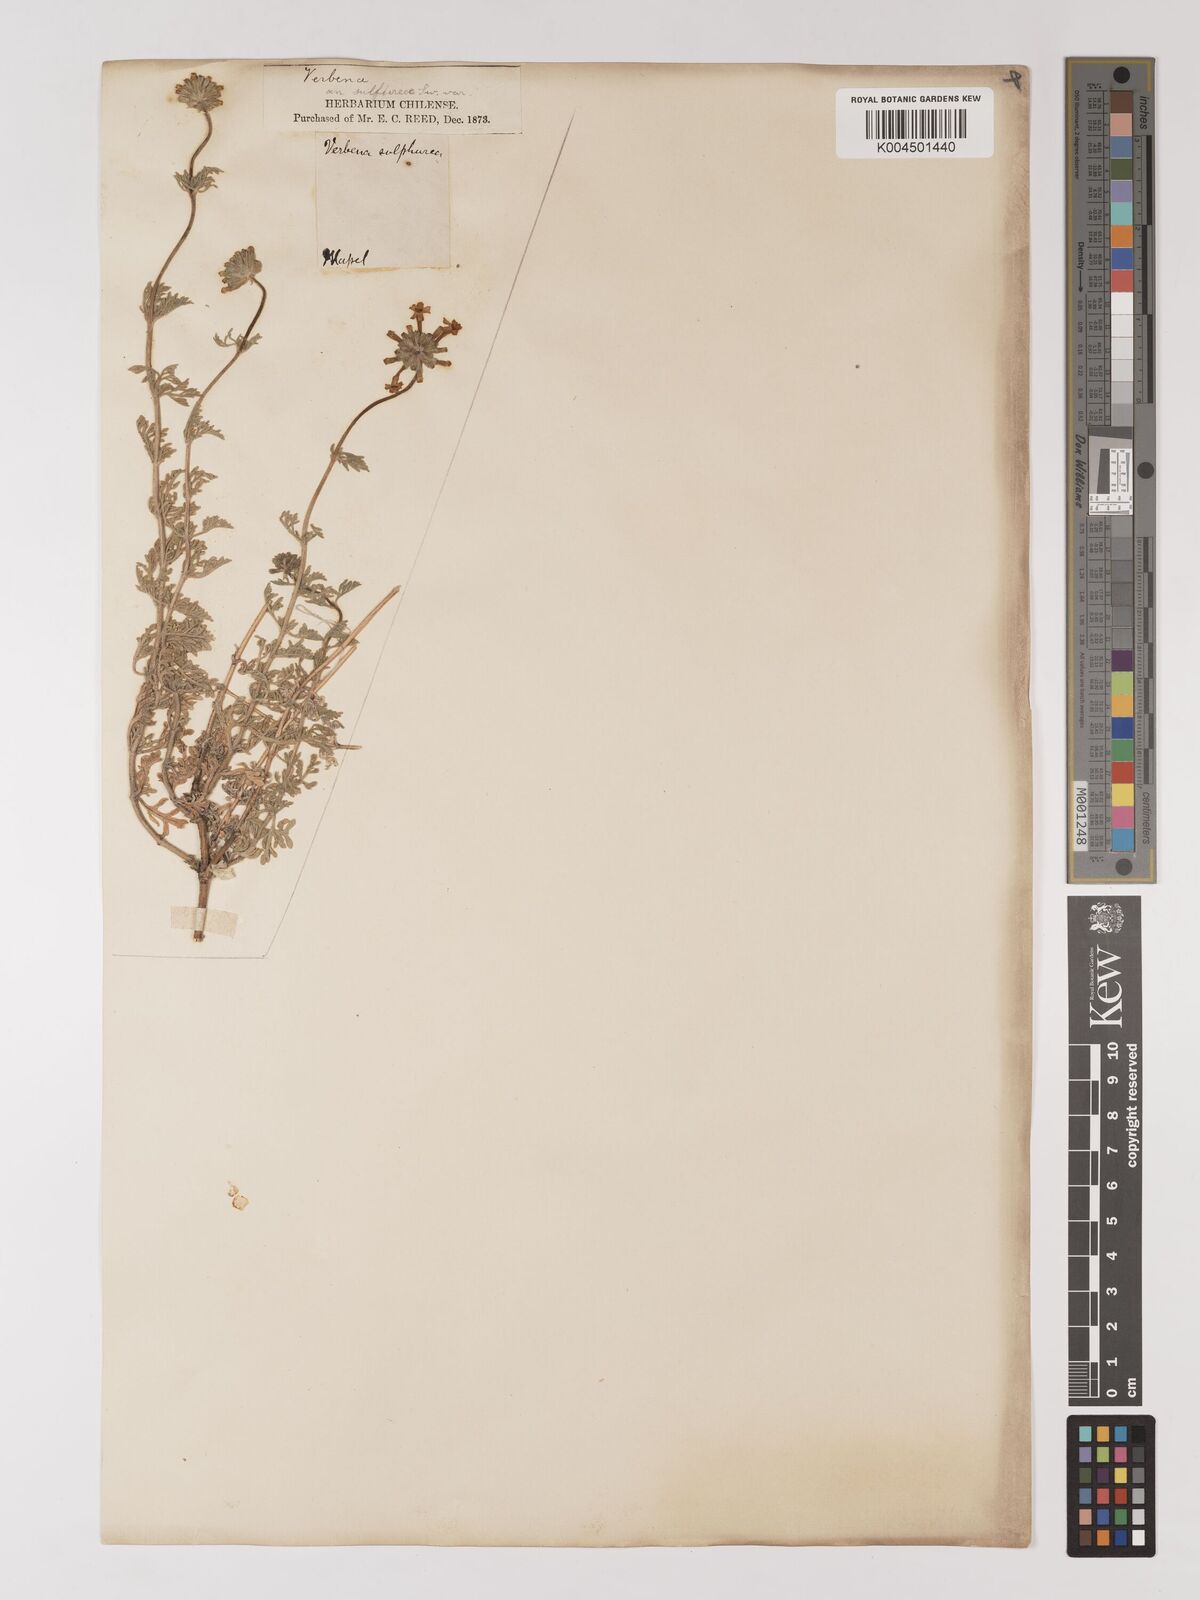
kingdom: Plantae
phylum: Tracheophyta
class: Magnoliopsida
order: Lamiales
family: Verbenaceae
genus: Verbena
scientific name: Verbena sulphurea
